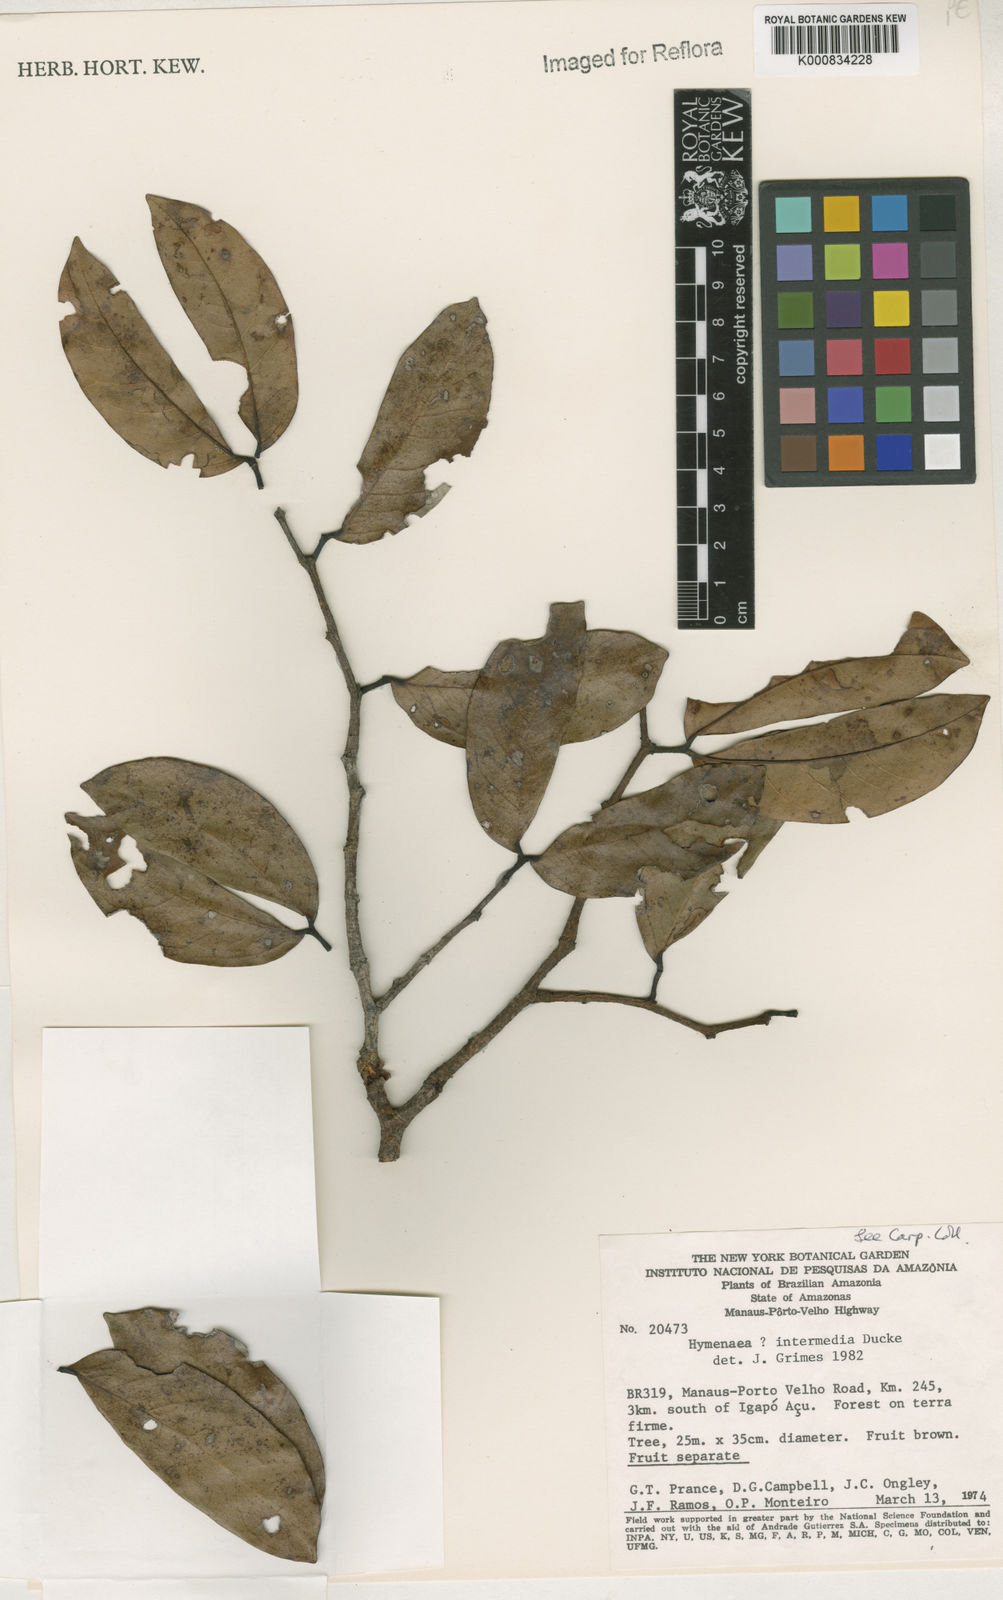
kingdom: Plantae
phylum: Tracheophyta
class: Magnoliopsida
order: Fabales
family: Fabaceae
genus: Hymenaea
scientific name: Hymenaea intermedia
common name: South american copal
